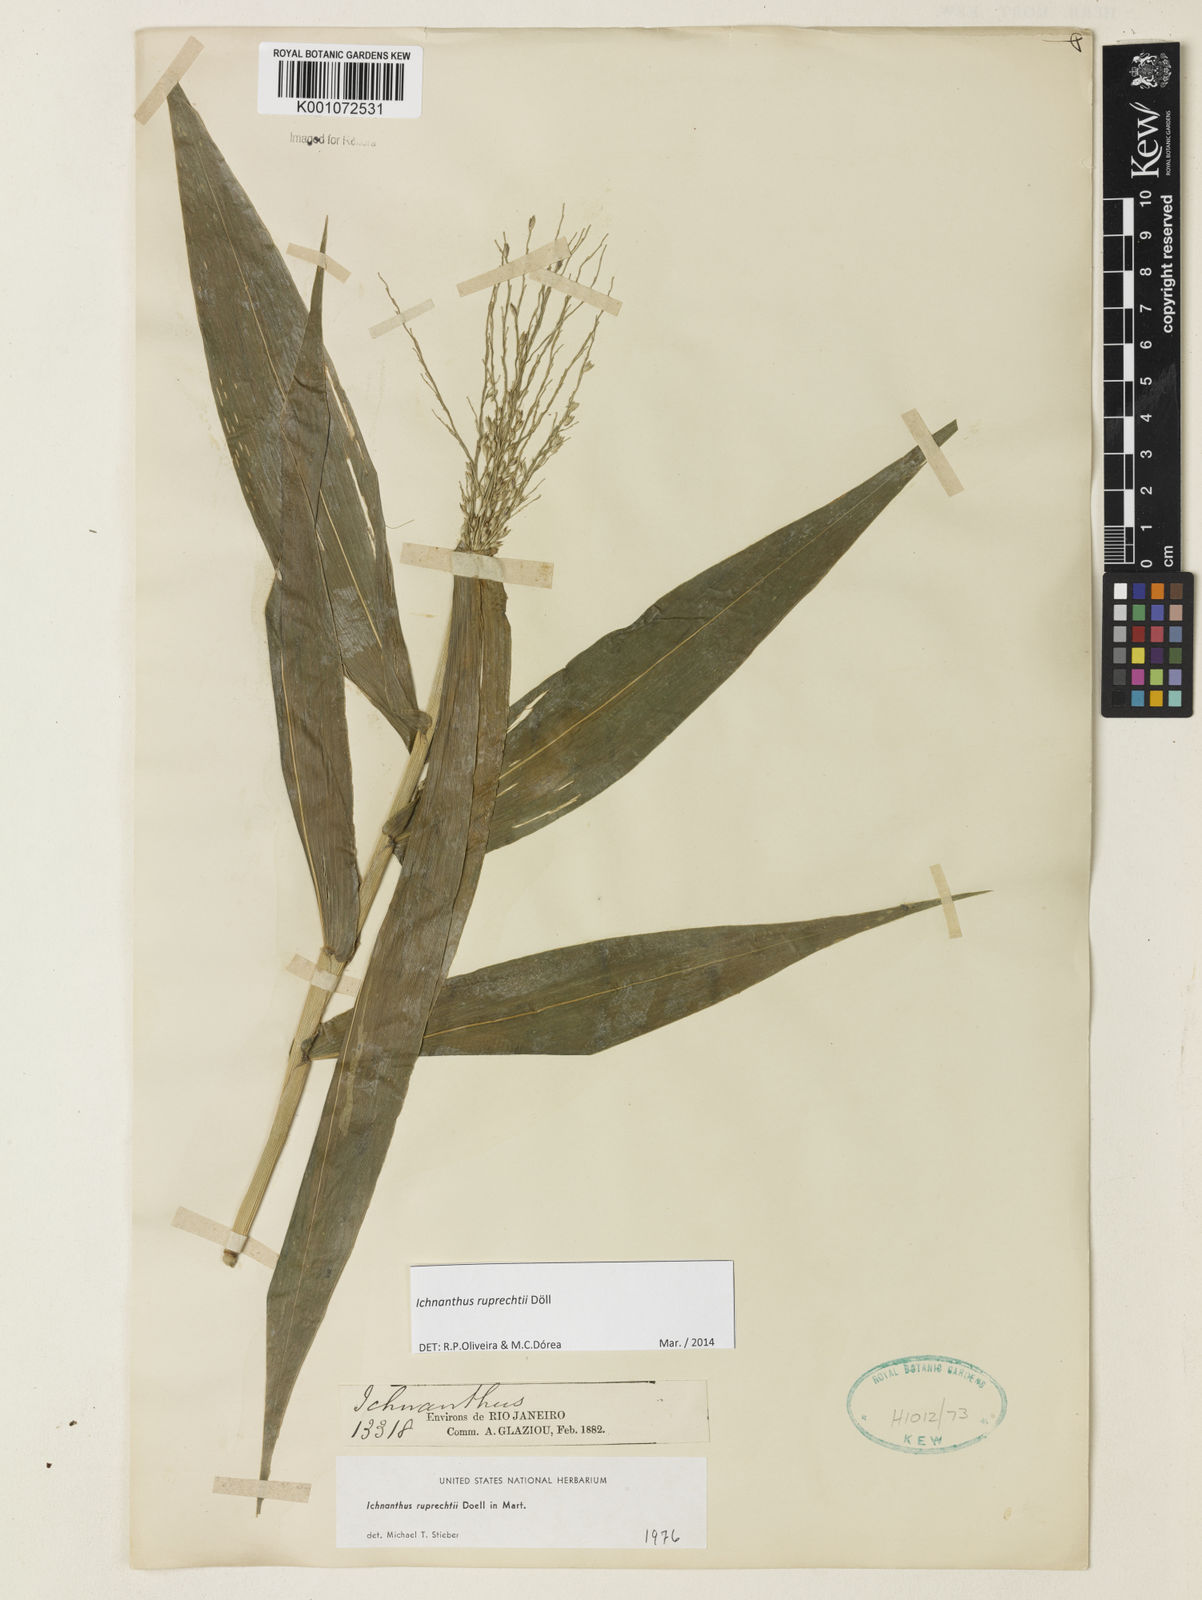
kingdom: Plantae
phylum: Tracheophyta
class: Liliopsida
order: Poales
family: Poaceae
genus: Ichnanthus
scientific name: Ichnanthus
